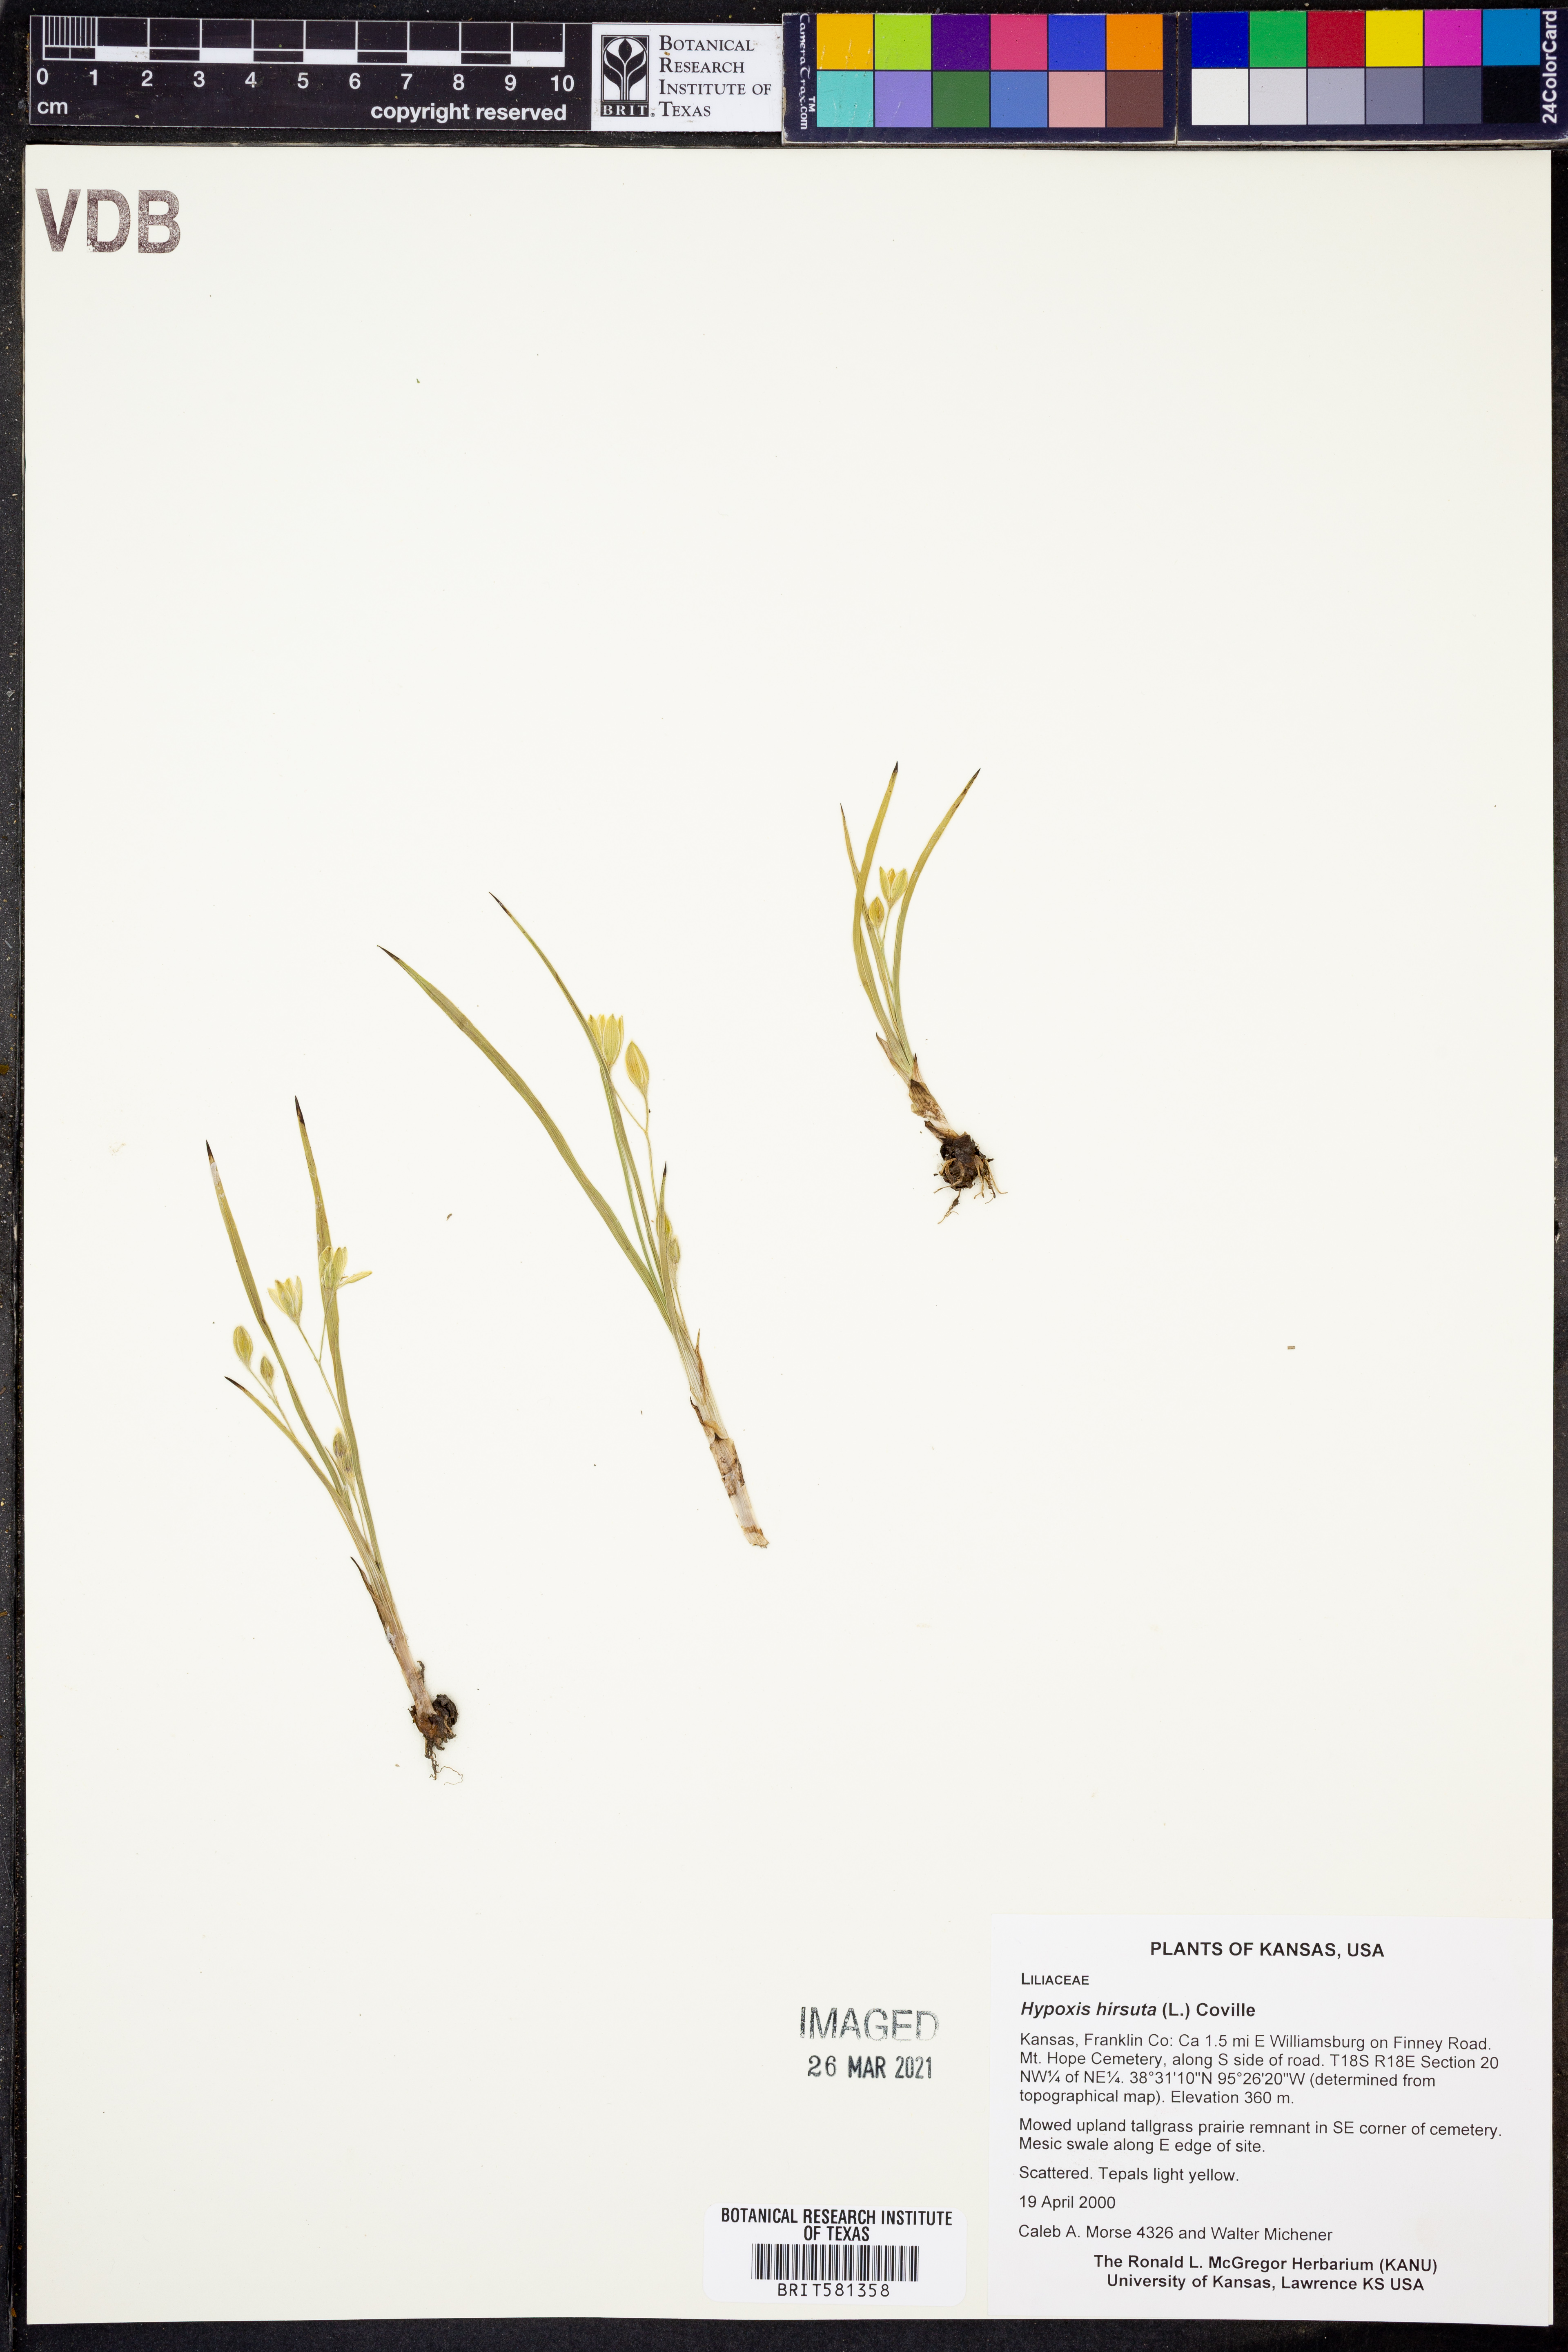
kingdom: Plantae
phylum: Tracheophyta
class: Liliopsida
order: Asparagales
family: Hypoxidaceae
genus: Hypoxis
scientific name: Hypoxis hirsuta
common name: Common goldstar
